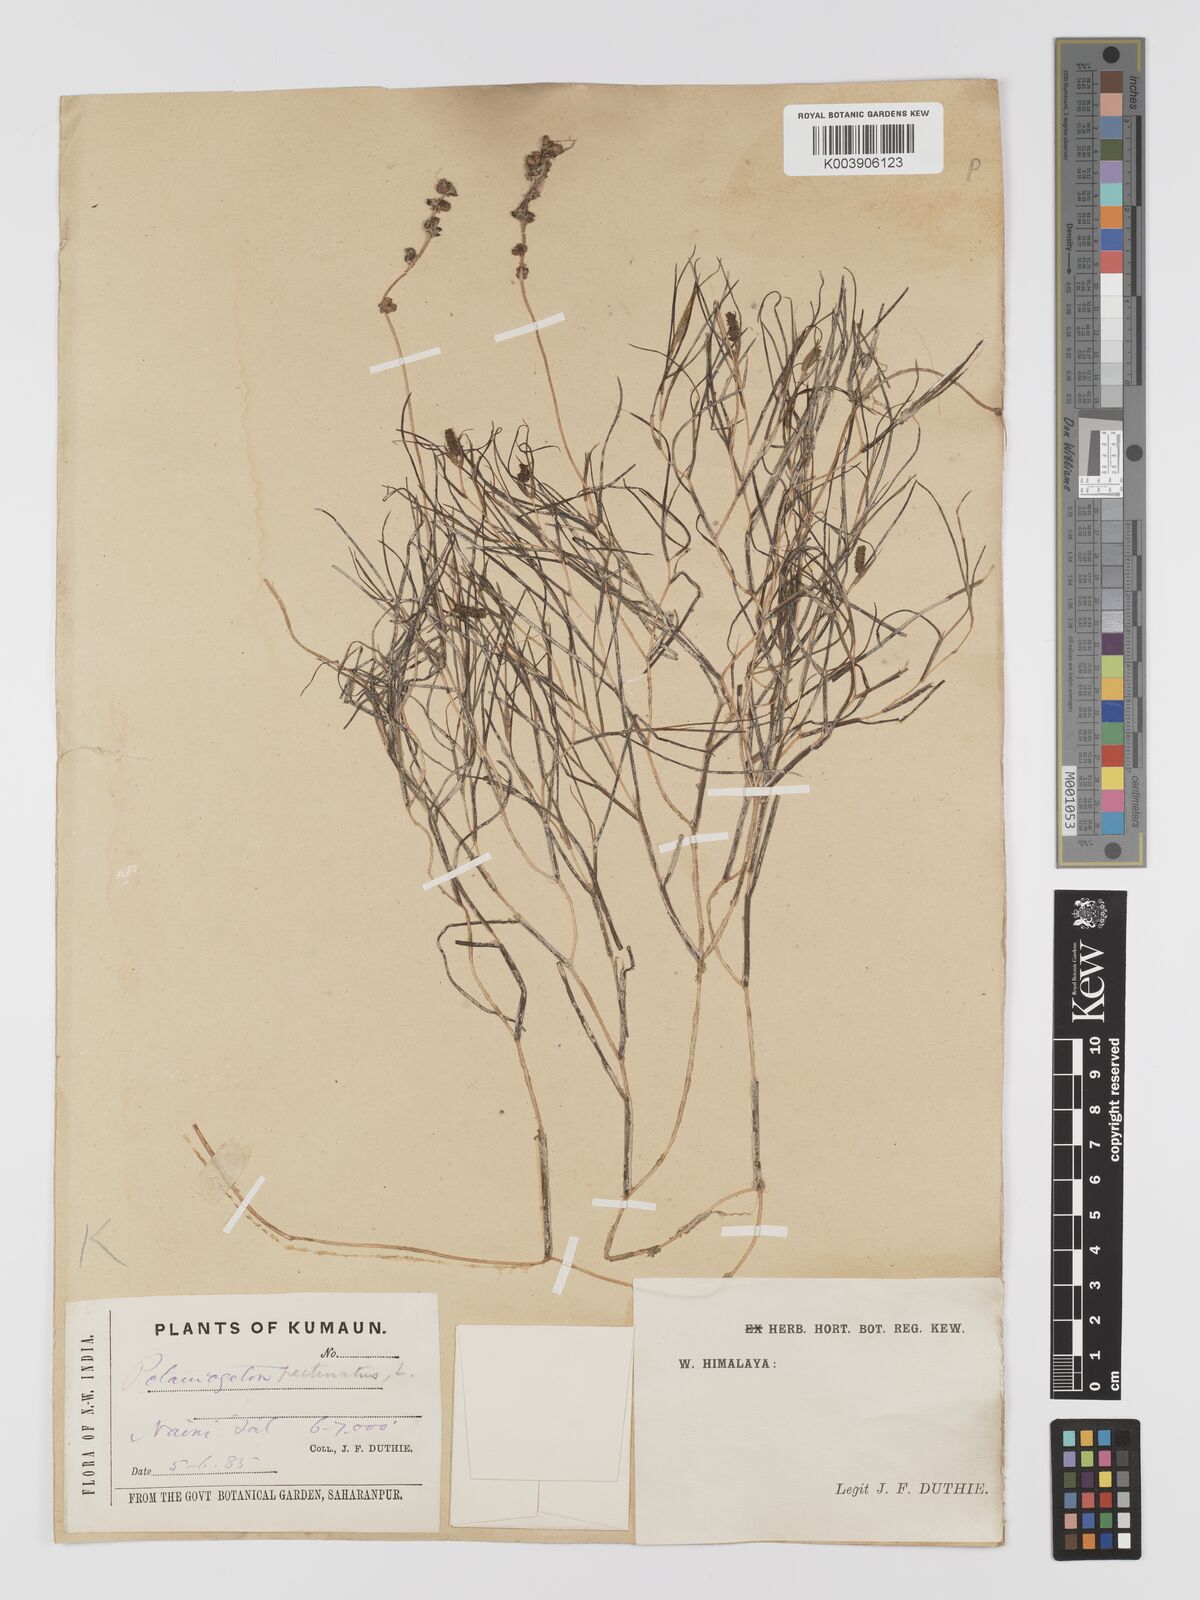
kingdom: Plantae
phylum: Tracheophyta
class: Liliopsida
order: Alismatales
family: Potamogetonaceae
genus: Stuckenia
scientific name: Stuckenia pectinata
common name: Sago pondweed
